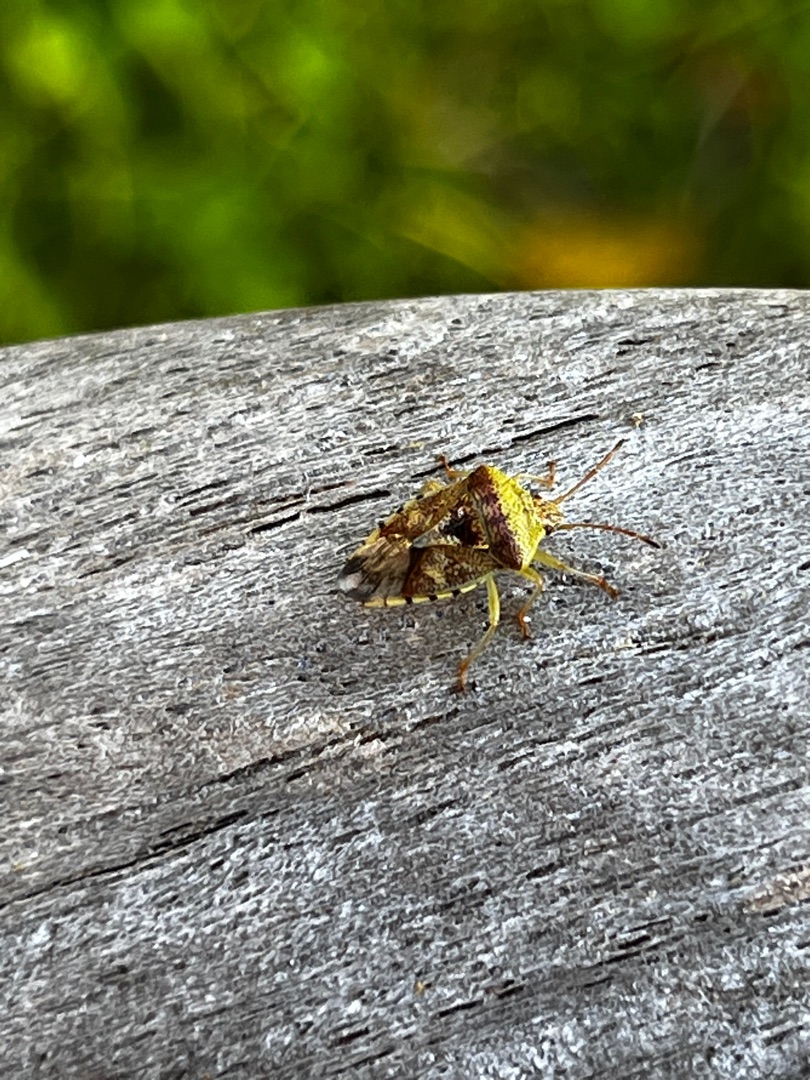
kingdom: Animalia
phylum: Arthropoda
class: Insecta
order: Hemiptera
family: Acanthosomatidae
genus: Elasmucha
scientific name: Elasmucha grisea
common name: Almindelig birketæge
